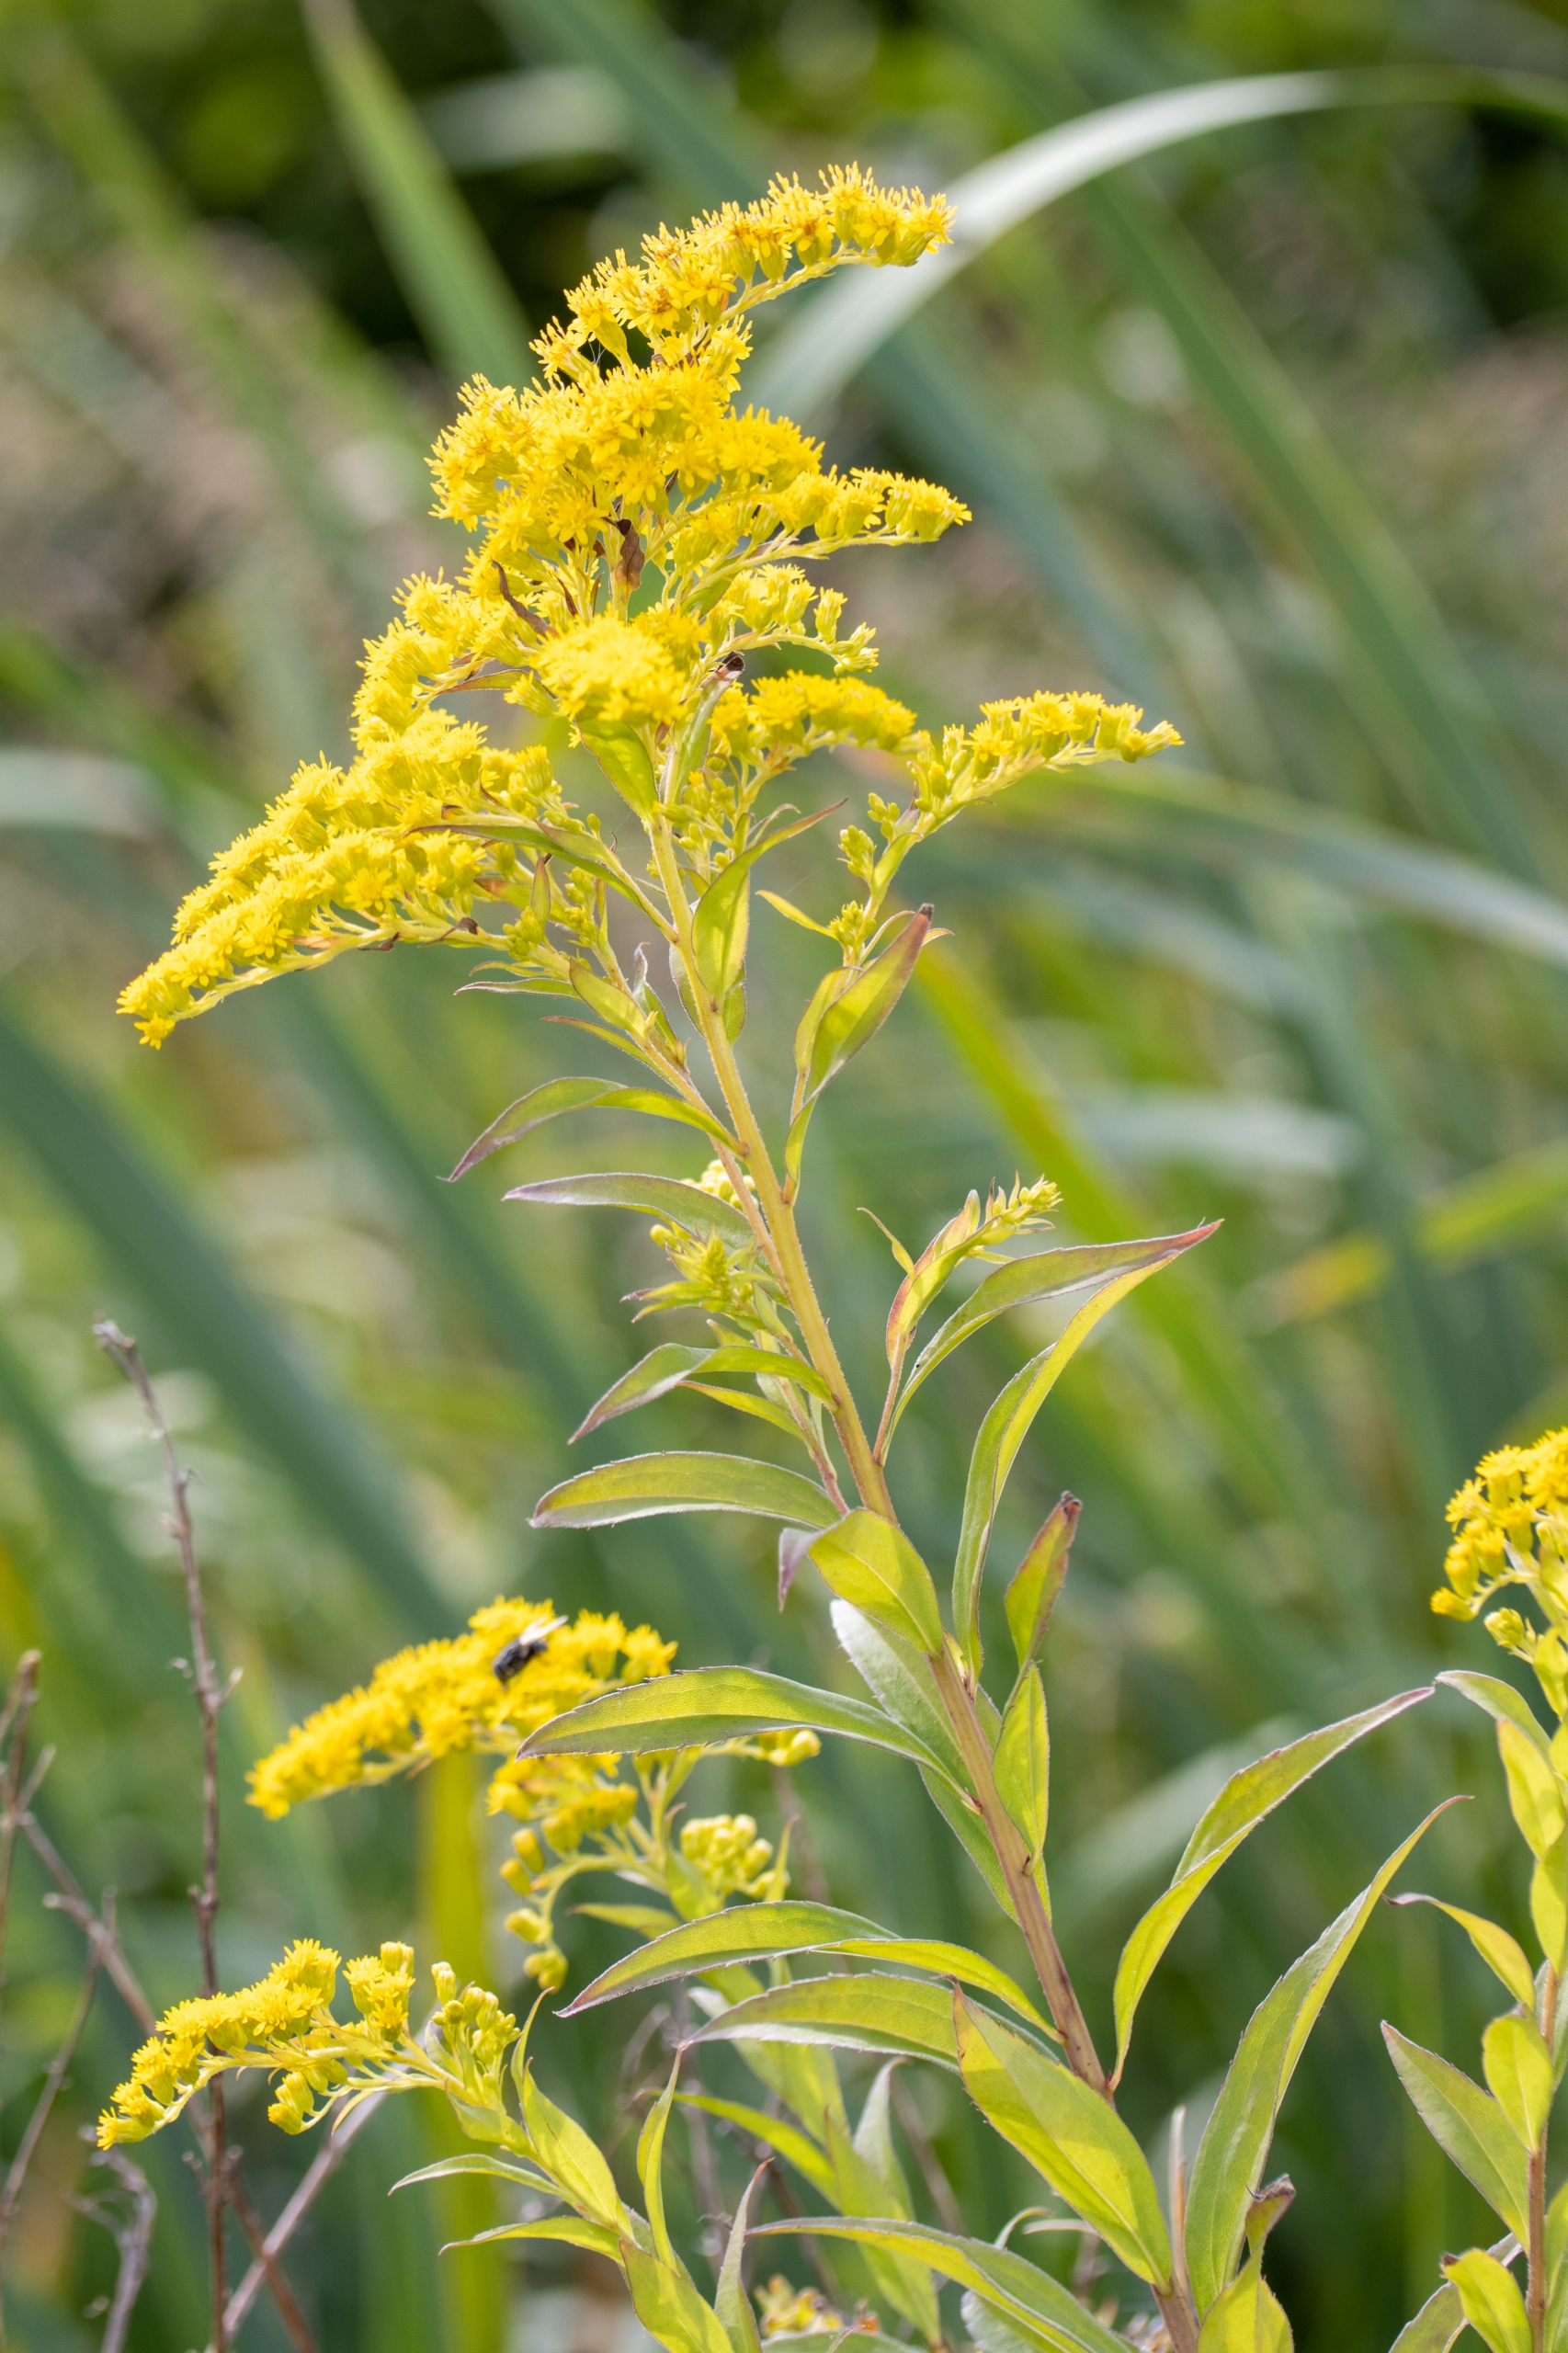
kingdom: Plantae
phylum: Tracheophyta
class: Magnoliopsida
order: Asterales
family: Asteraceae
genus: Solidago
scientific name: Solidago canadensis
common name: Kanadisk gyldenris
